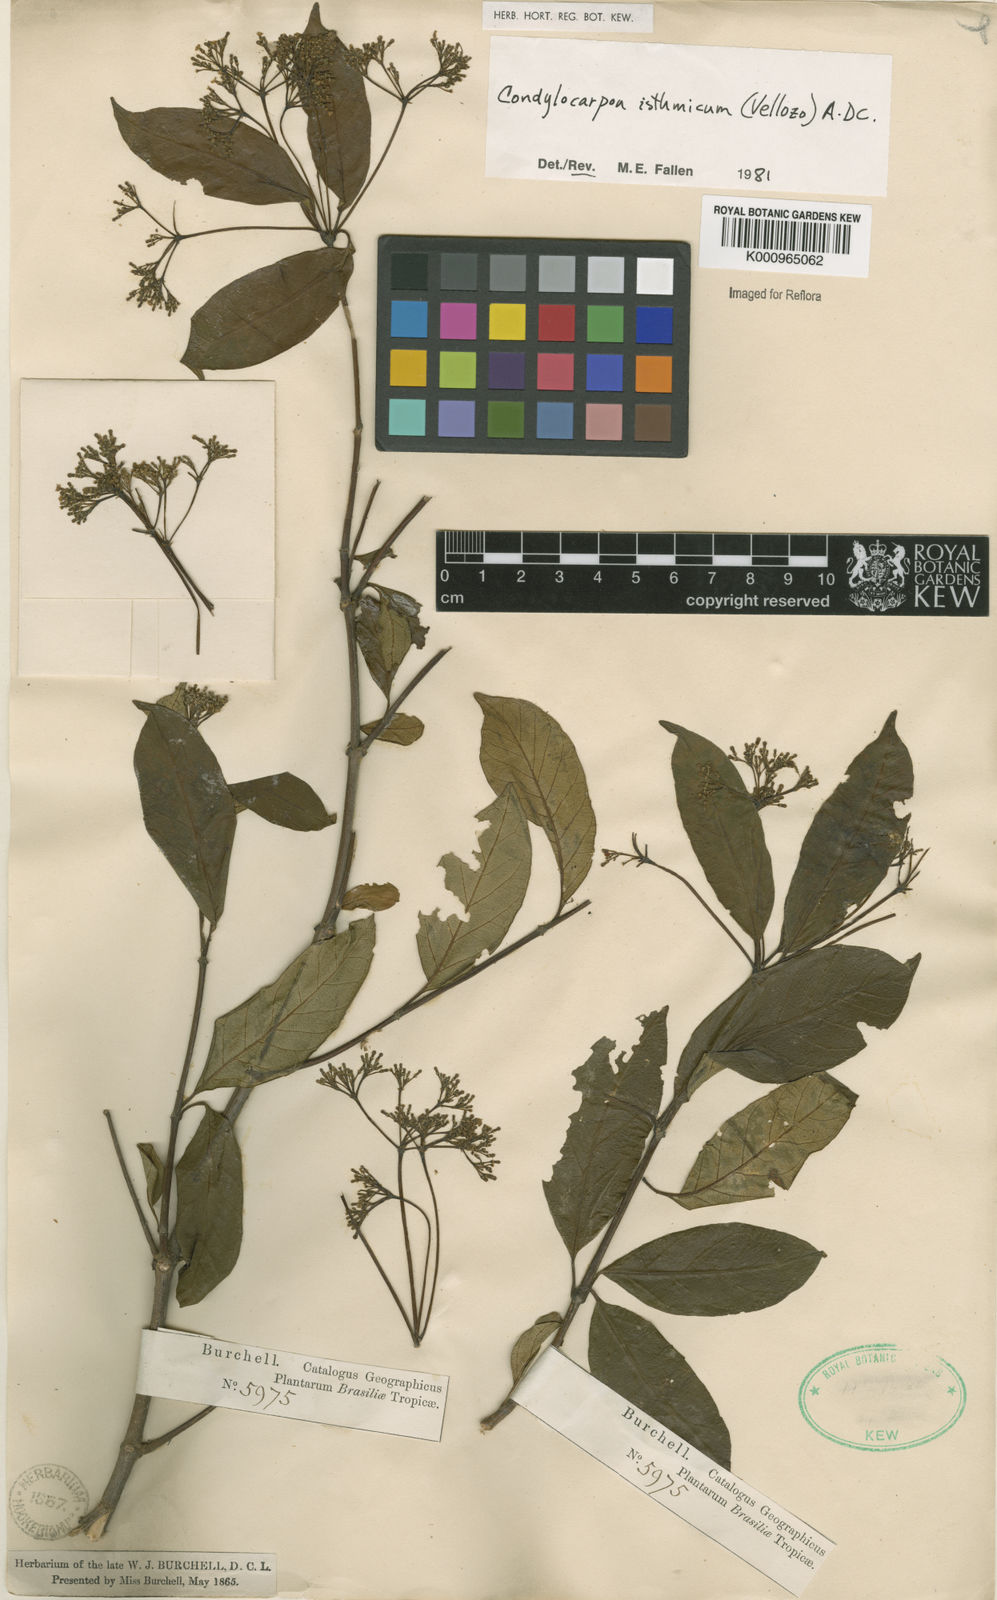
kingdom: Plantae
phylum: Tracheophyta
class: Magnoliopsida
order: Gentianales
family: Apocynaceae
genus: Condylocarpon
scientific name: Condylocarpon isthmicum
